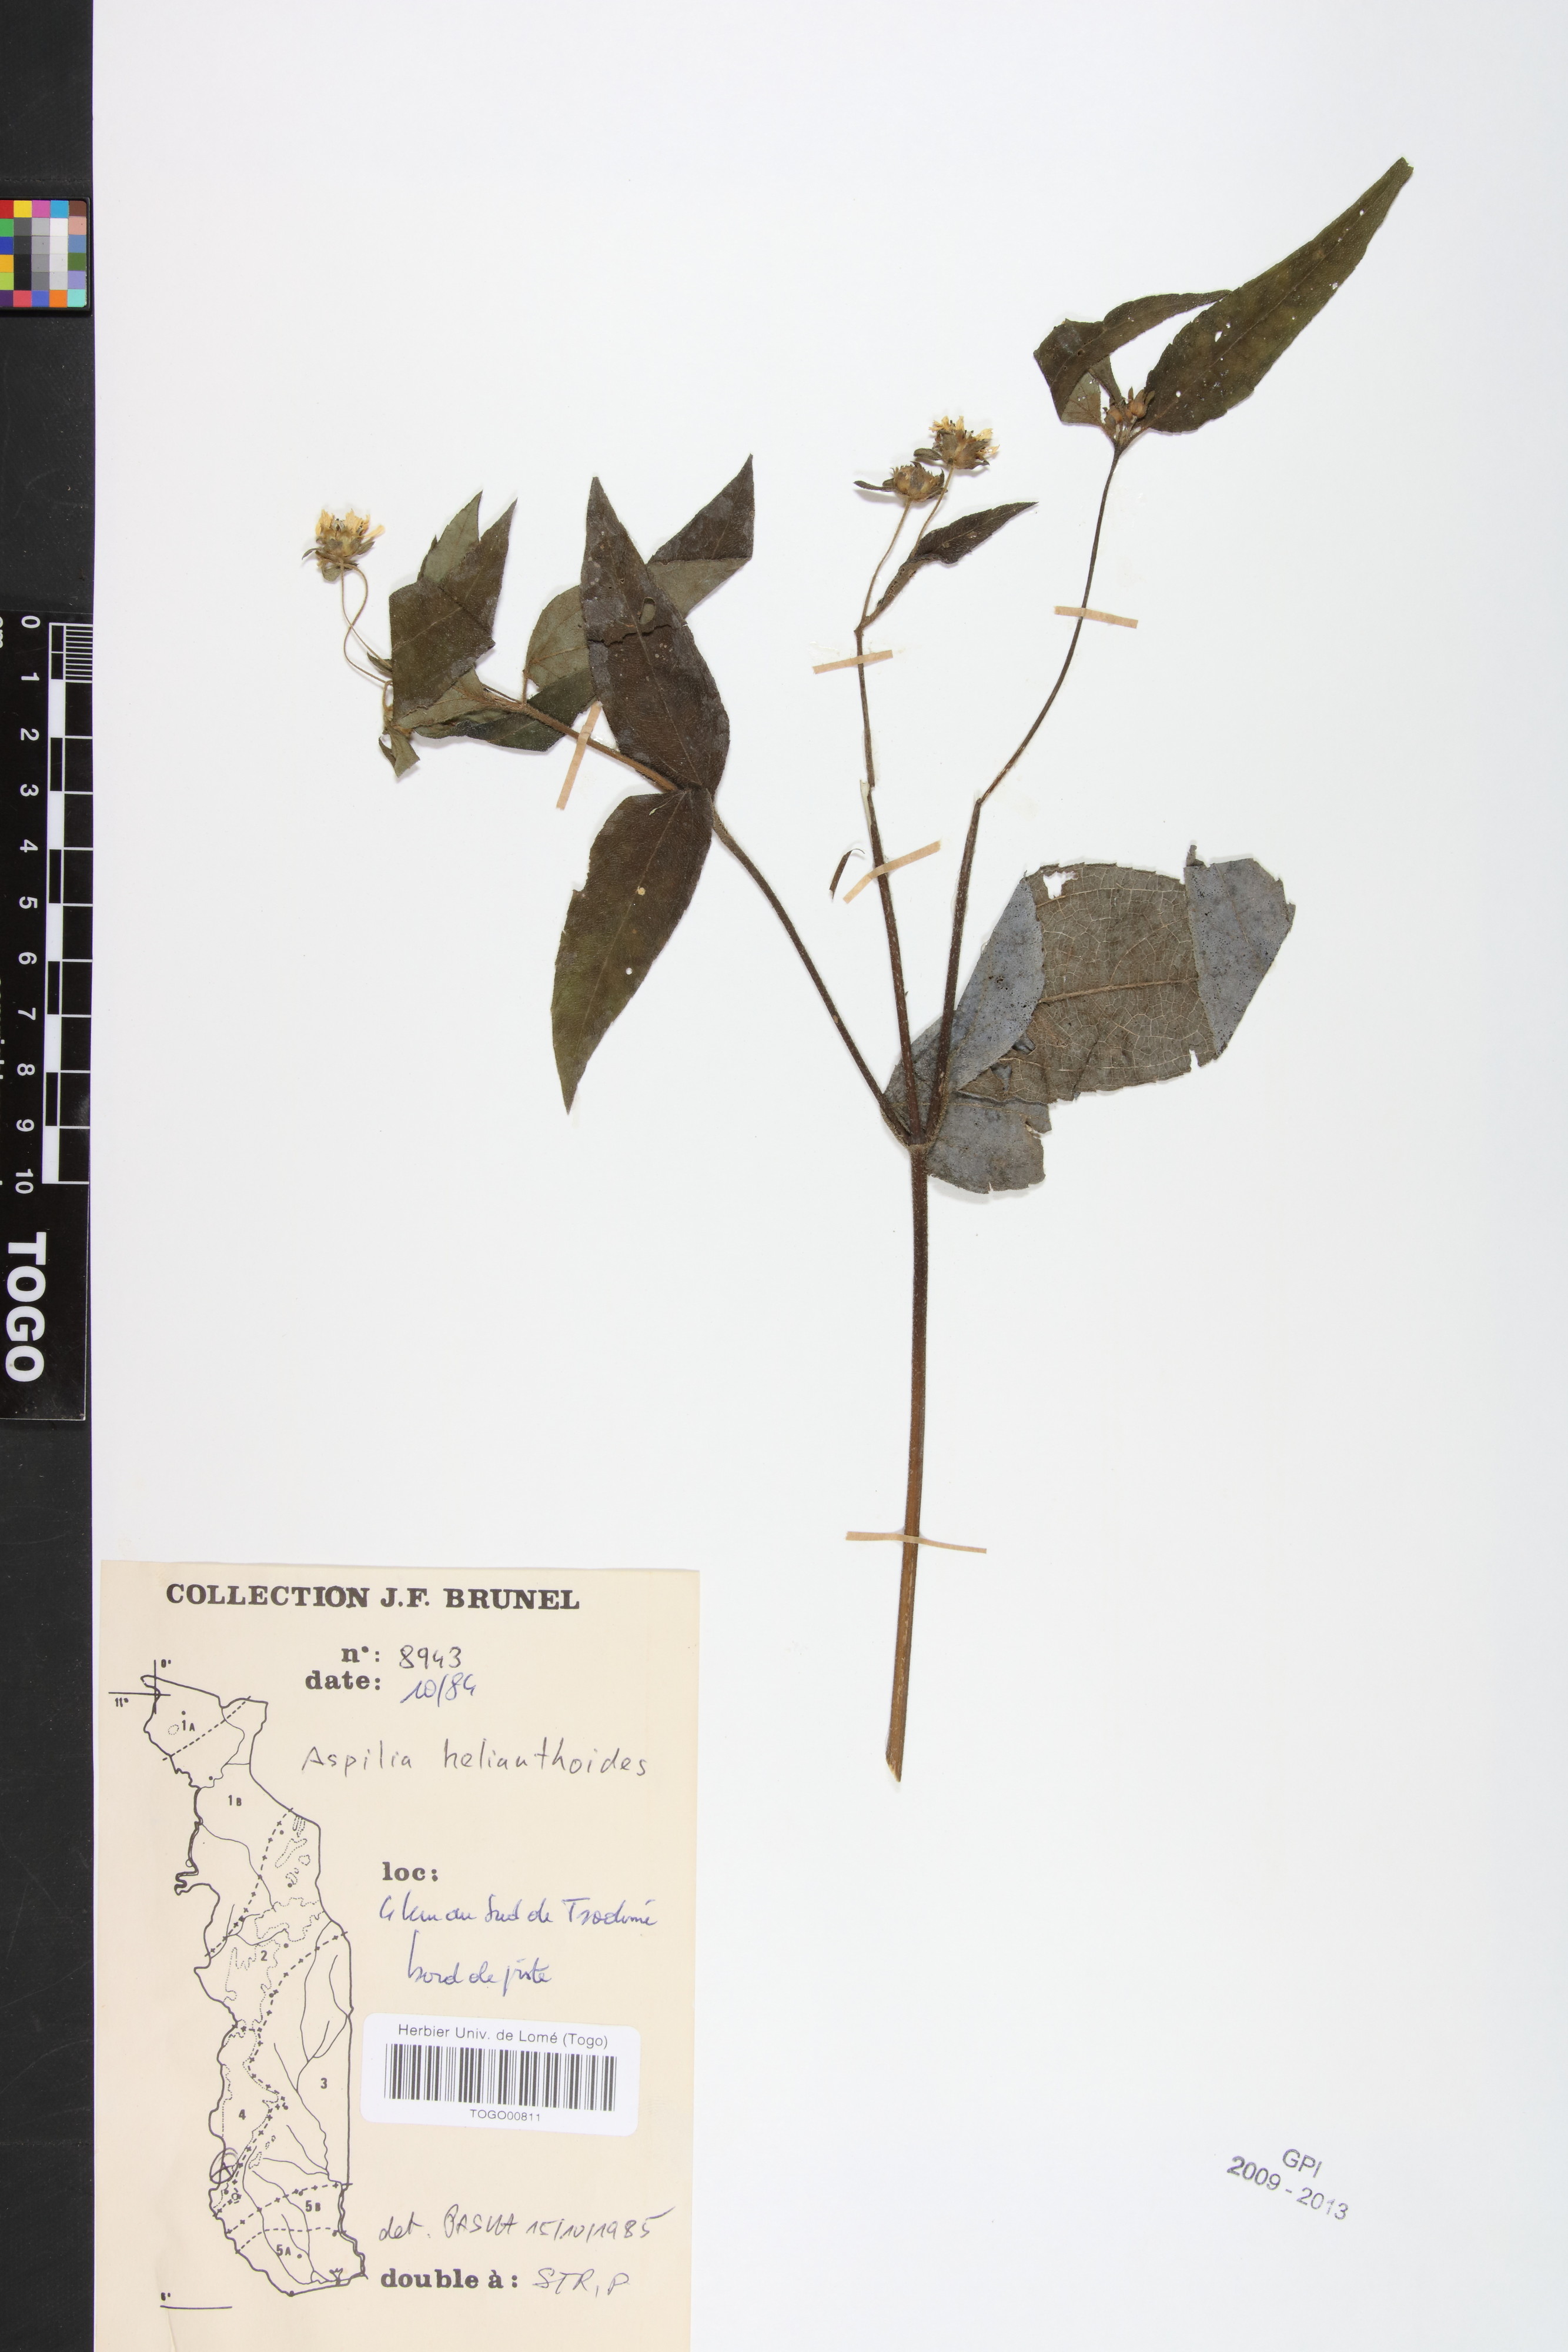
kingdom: Plantae
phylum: Tracheophyta
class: Magnoliopsida
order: Asterales
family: Asteraceae
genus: Aspilia
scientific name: Aspilia helianthoides
